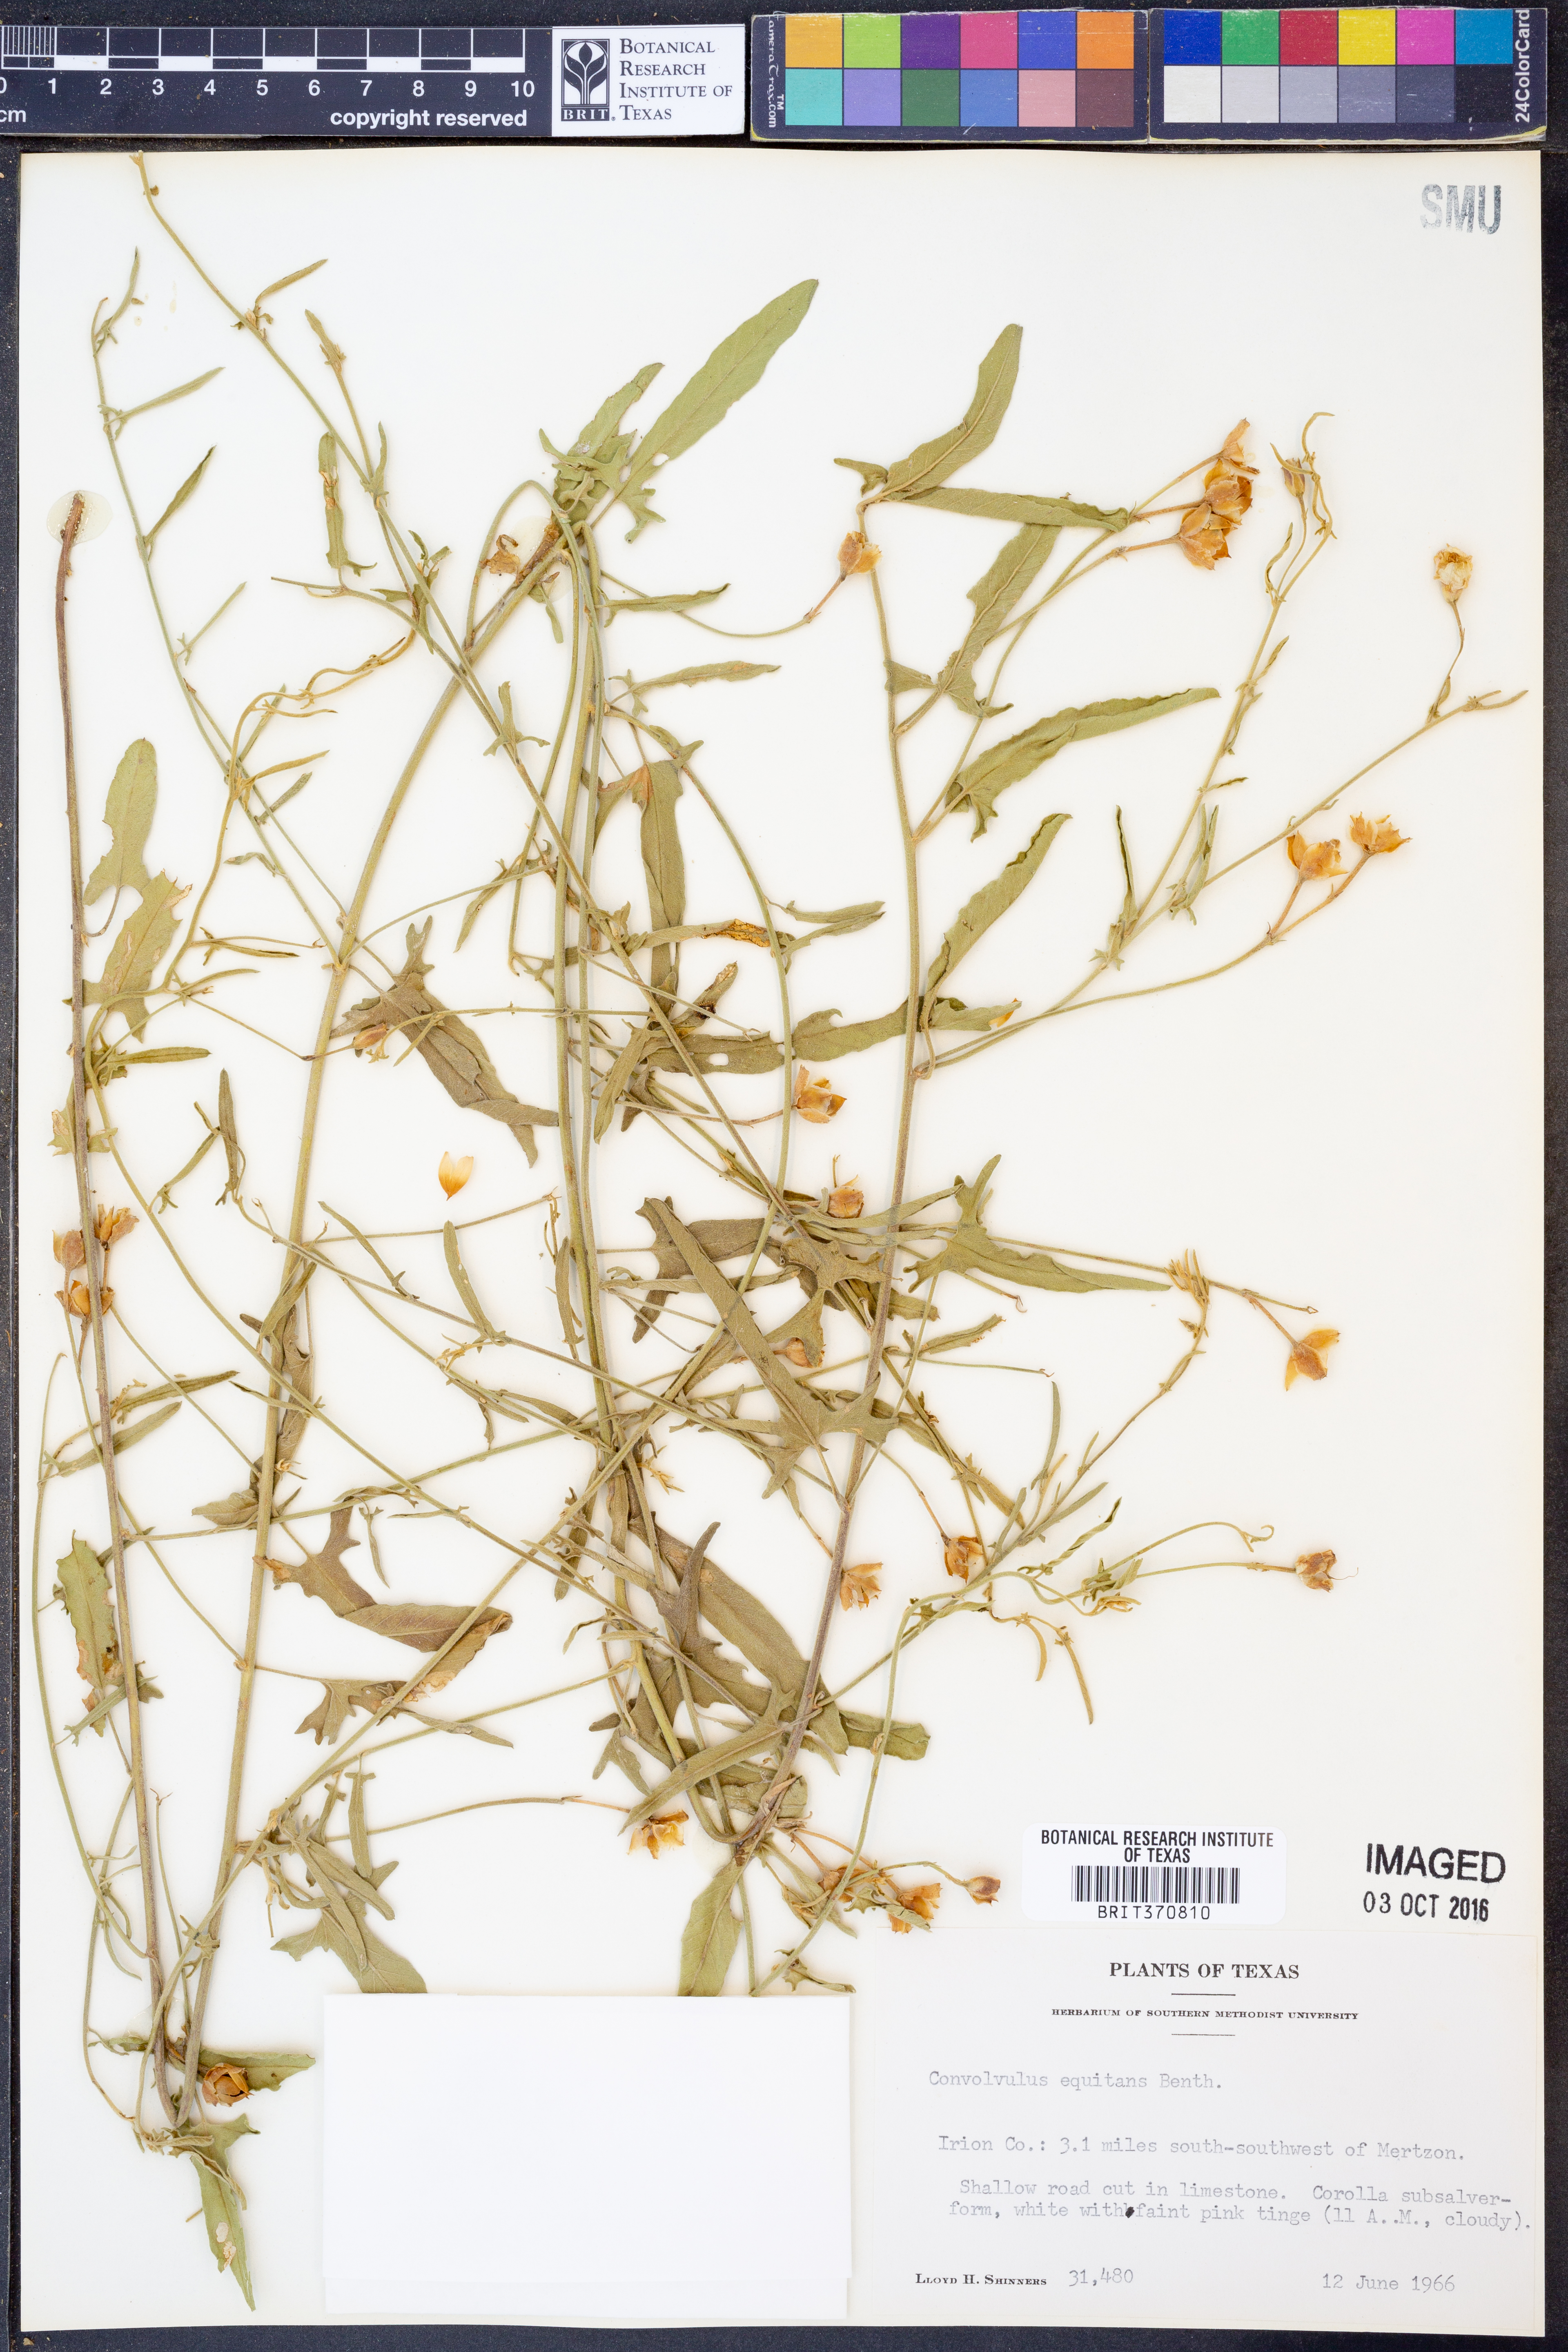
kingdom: Plantae
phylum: Tracheophyta
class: Magnoliopsida
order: Solanales
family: Convolvulaceae
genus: Convolvulus
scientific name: Convolvulus equitans
